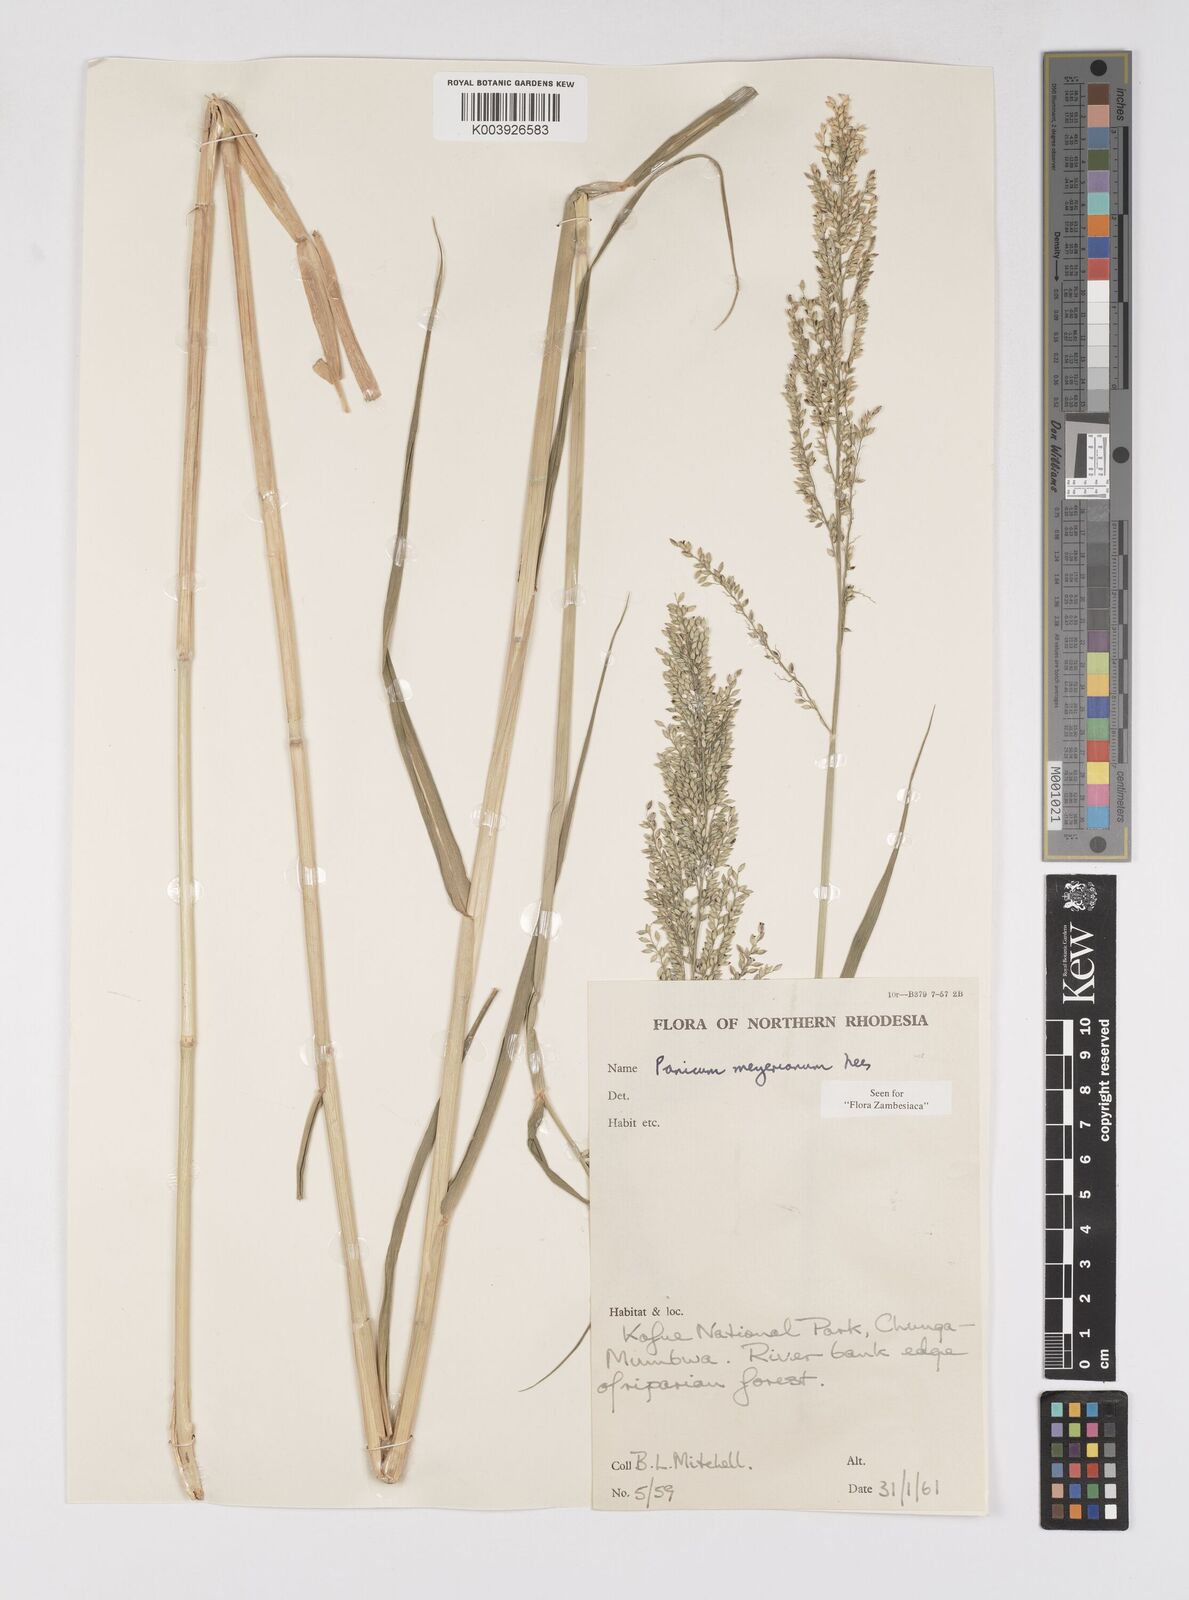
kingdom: Plantae
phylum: Tracheophyta
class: Liliopsida
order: Poales
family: Poaceae
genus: Eriochloa
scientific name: Eriochloa meyeriana
